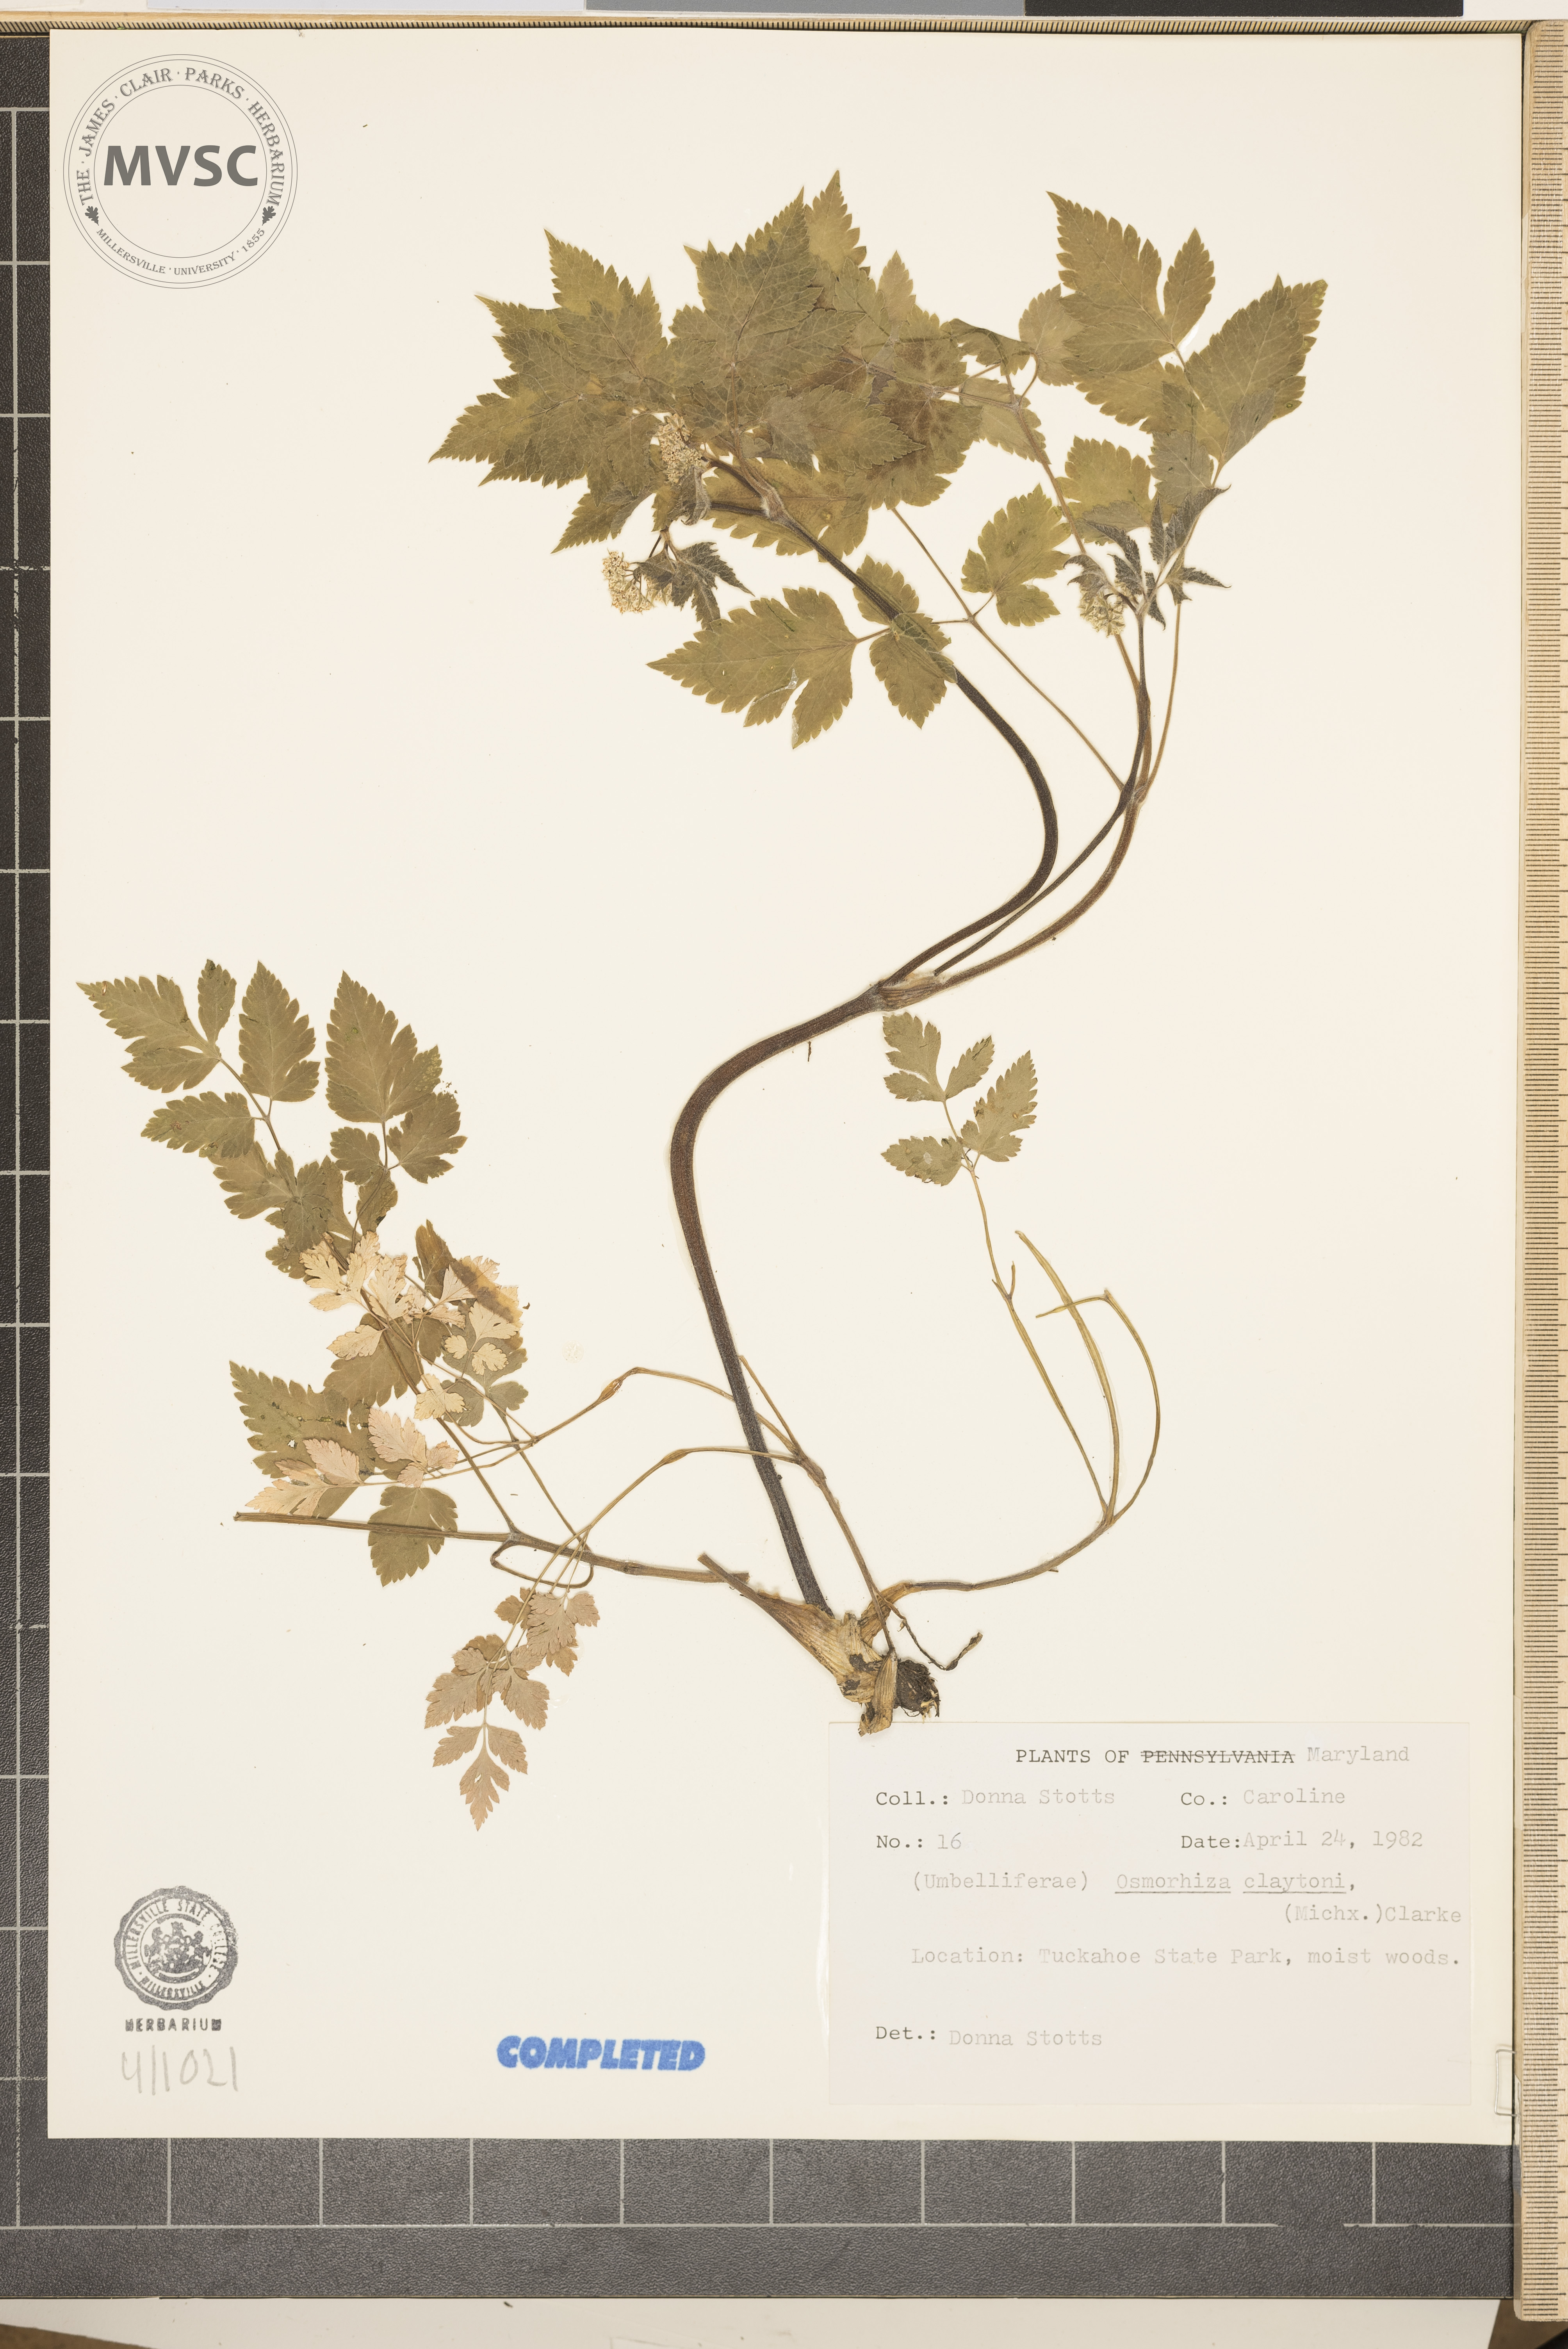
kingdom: Plantae
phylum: Tracheophyta
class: Magnoliopsida
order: Apiales
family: Apiaceae
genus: Osmorhiza
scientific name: Osmorhiza claytonii
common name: Hairy sweet cicely
